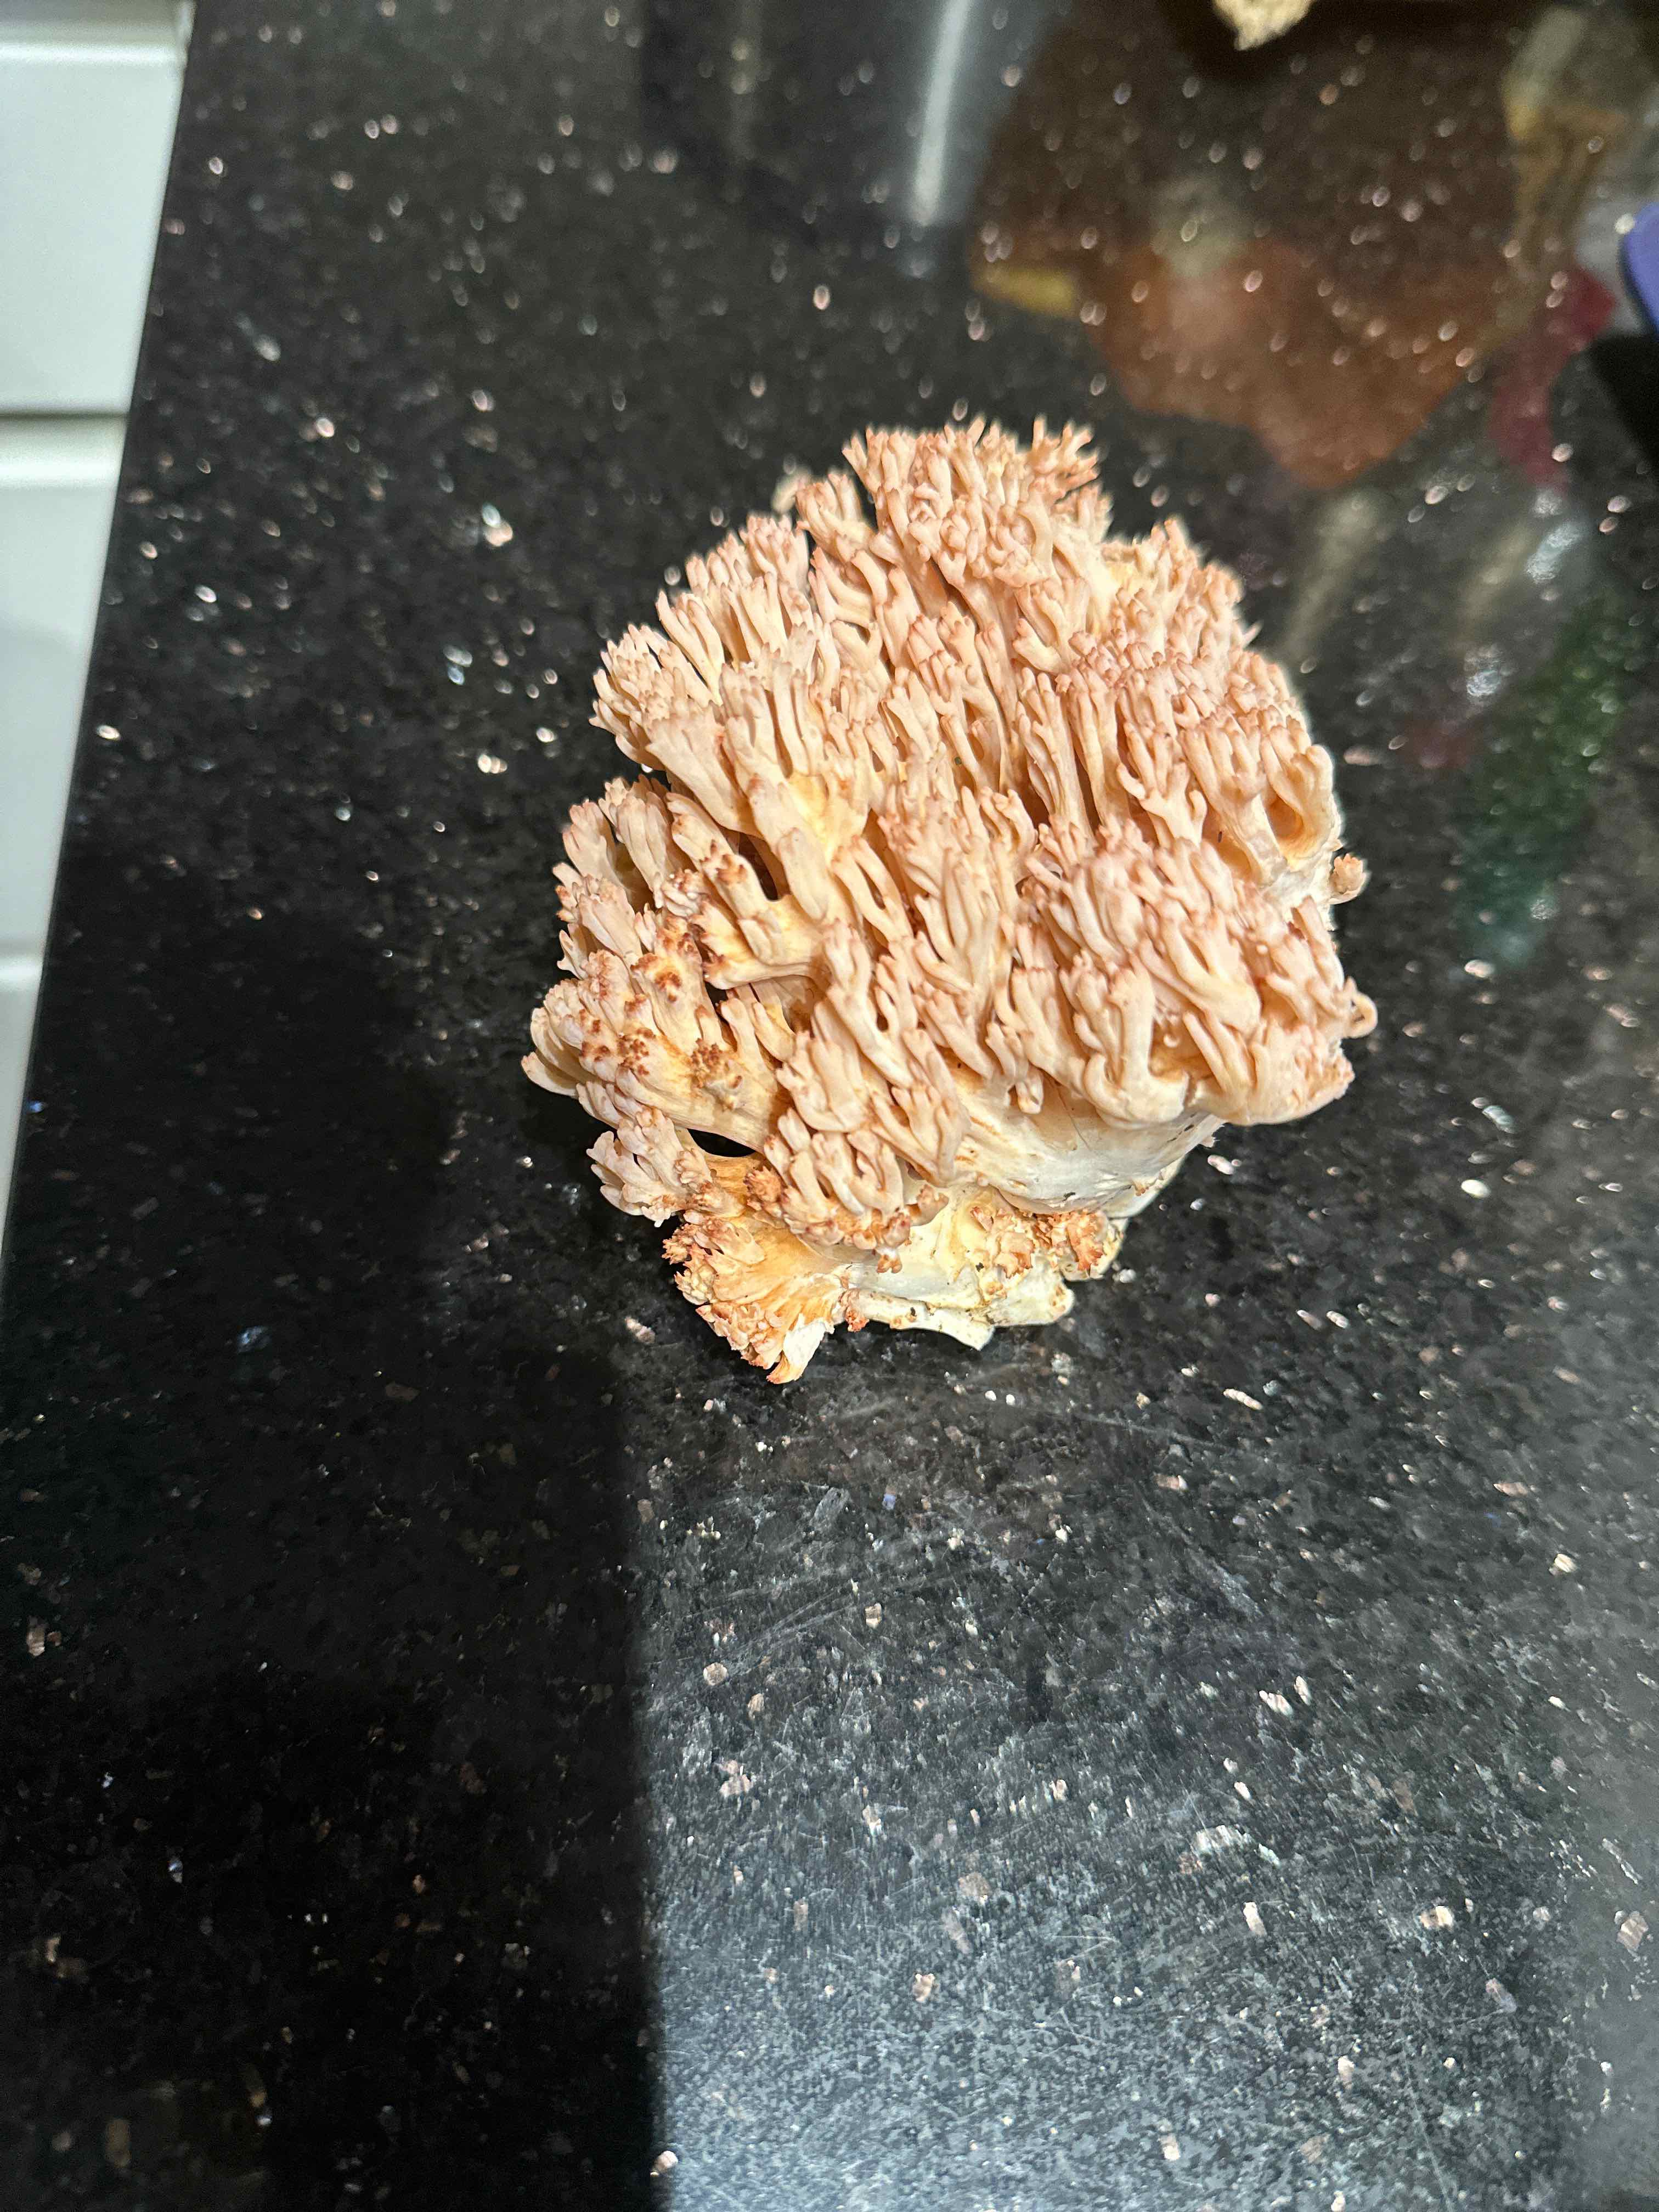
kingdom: Fungi
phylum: Basidiomycota
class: Agaricomycetes
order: Gomphales
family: Gomphaceae
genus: Ramaria
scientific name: Ramaria botrytis
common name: drue-koralsvamp
